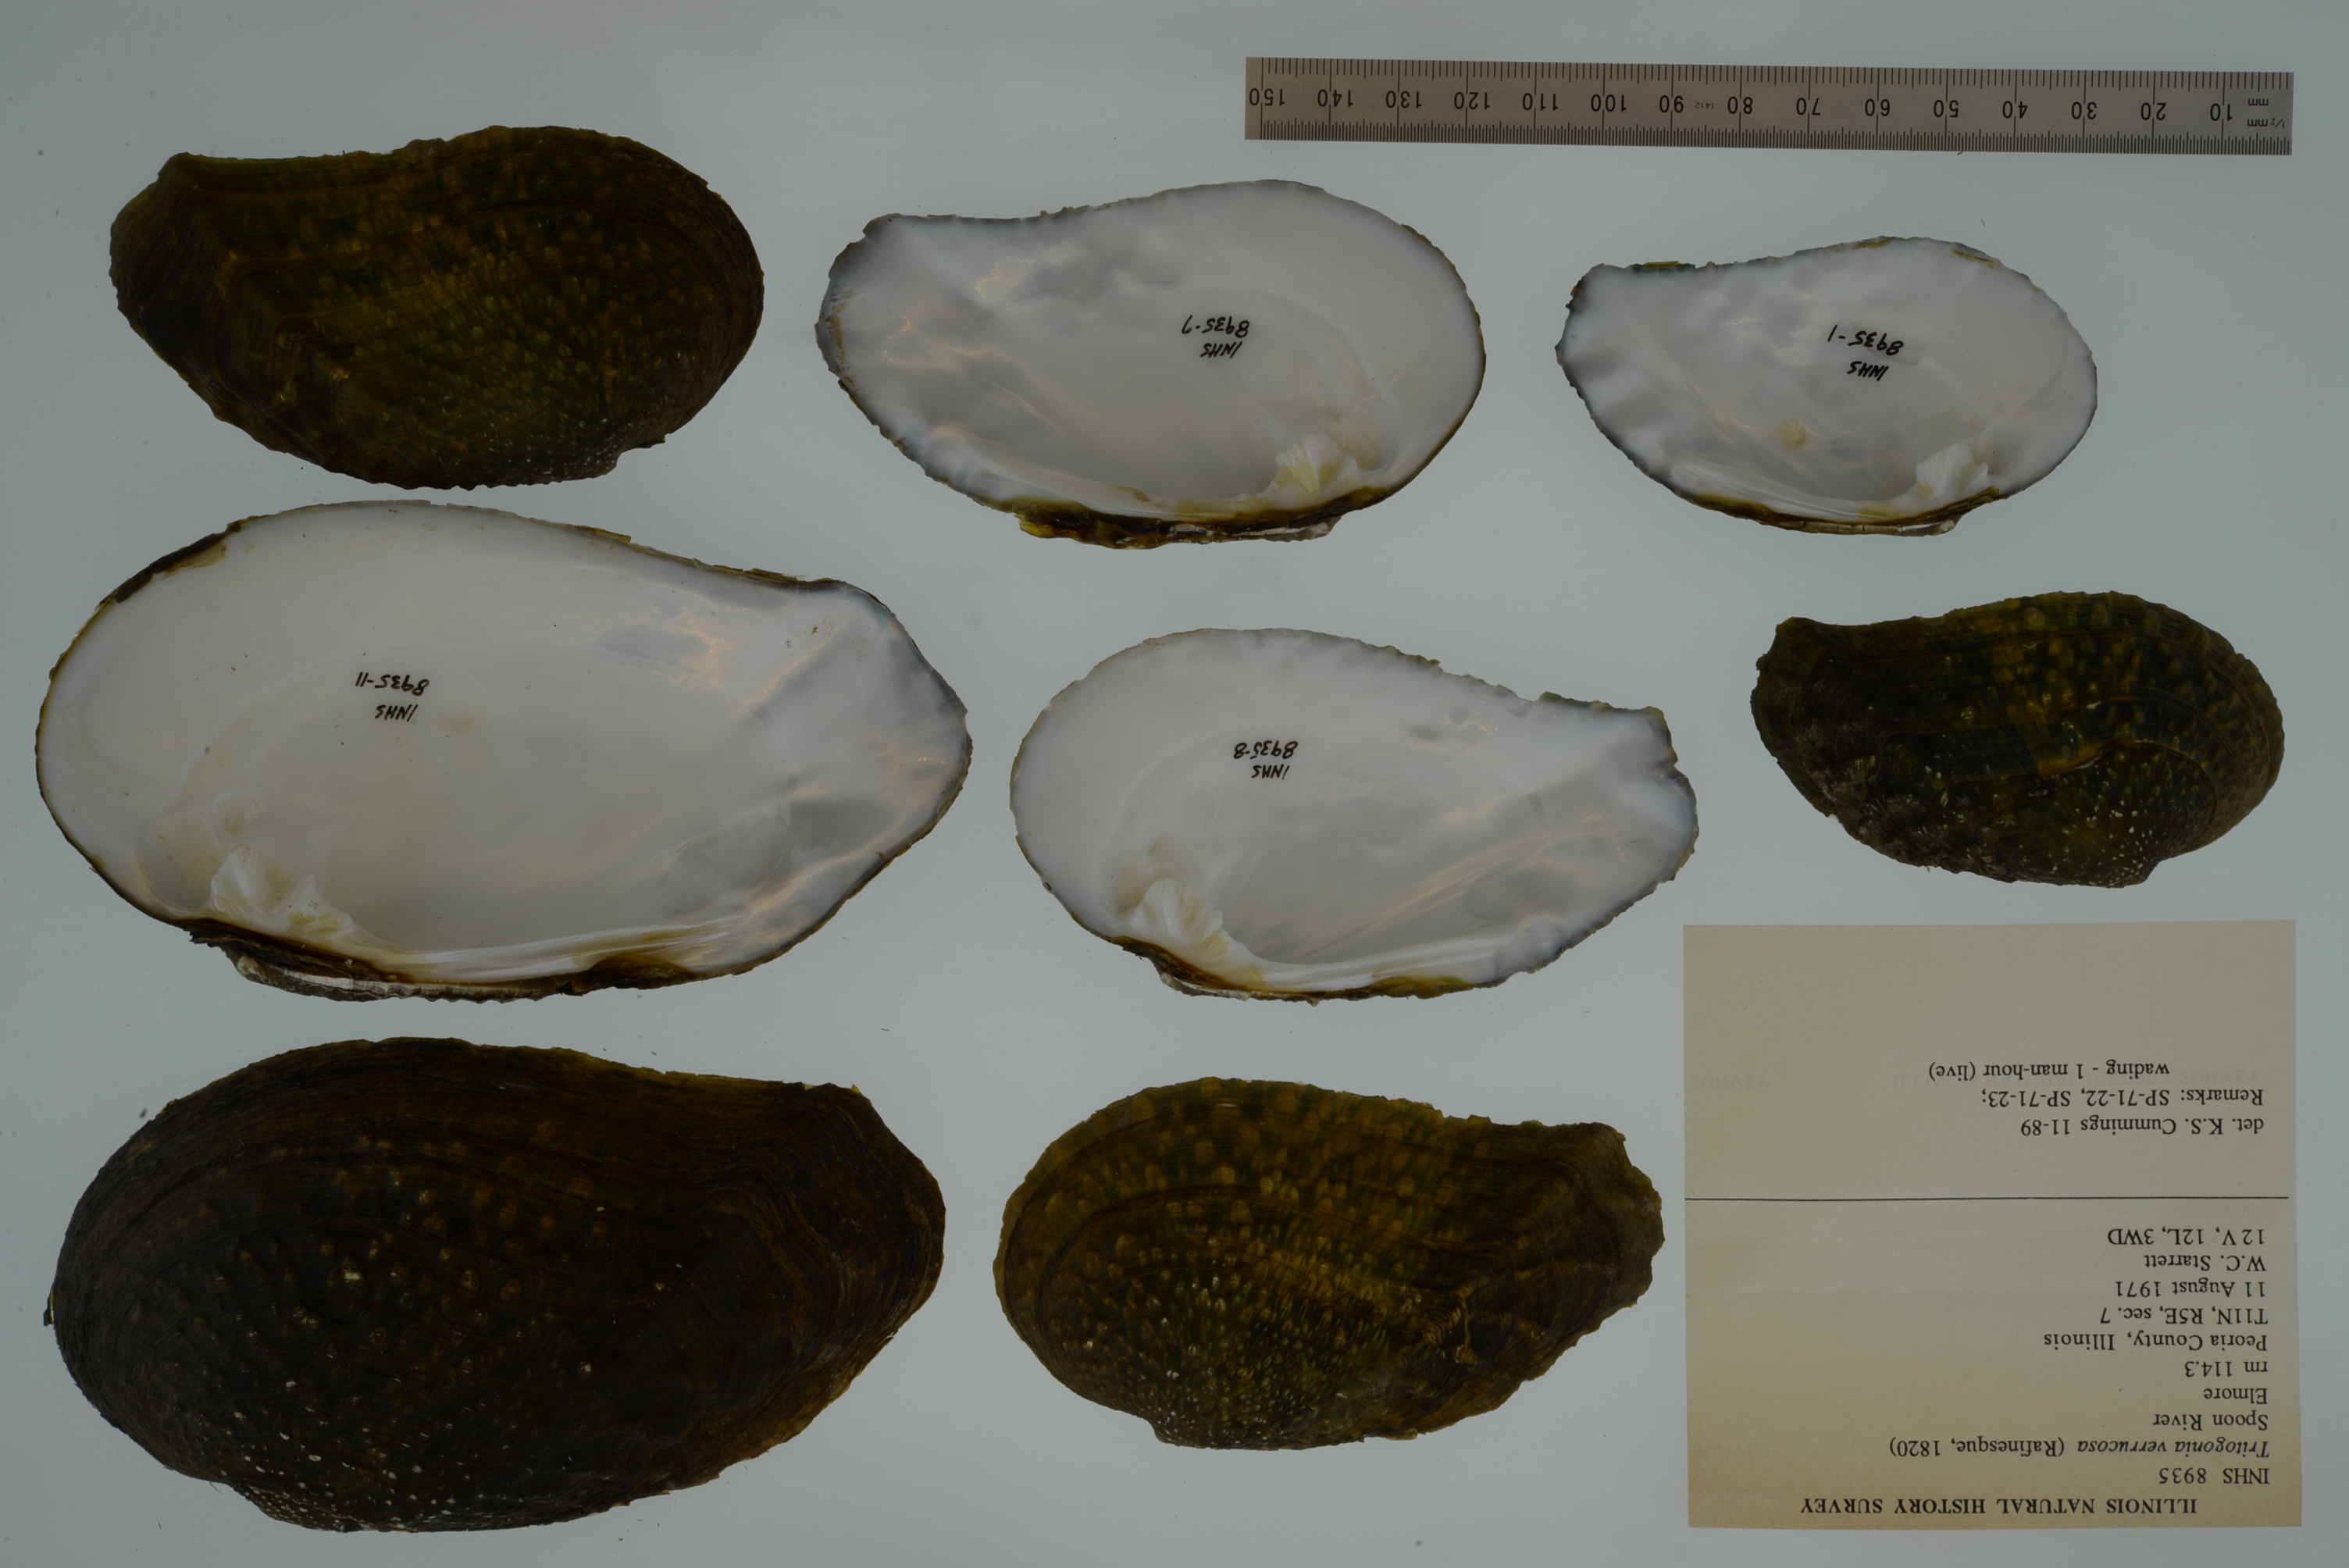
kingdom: Animalia
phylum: Mollusca
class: Bivalvia
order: Unionida
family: Unionidae
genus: Tritogonia
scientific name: Tritogonia verrucosa
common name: Pistolgrip
